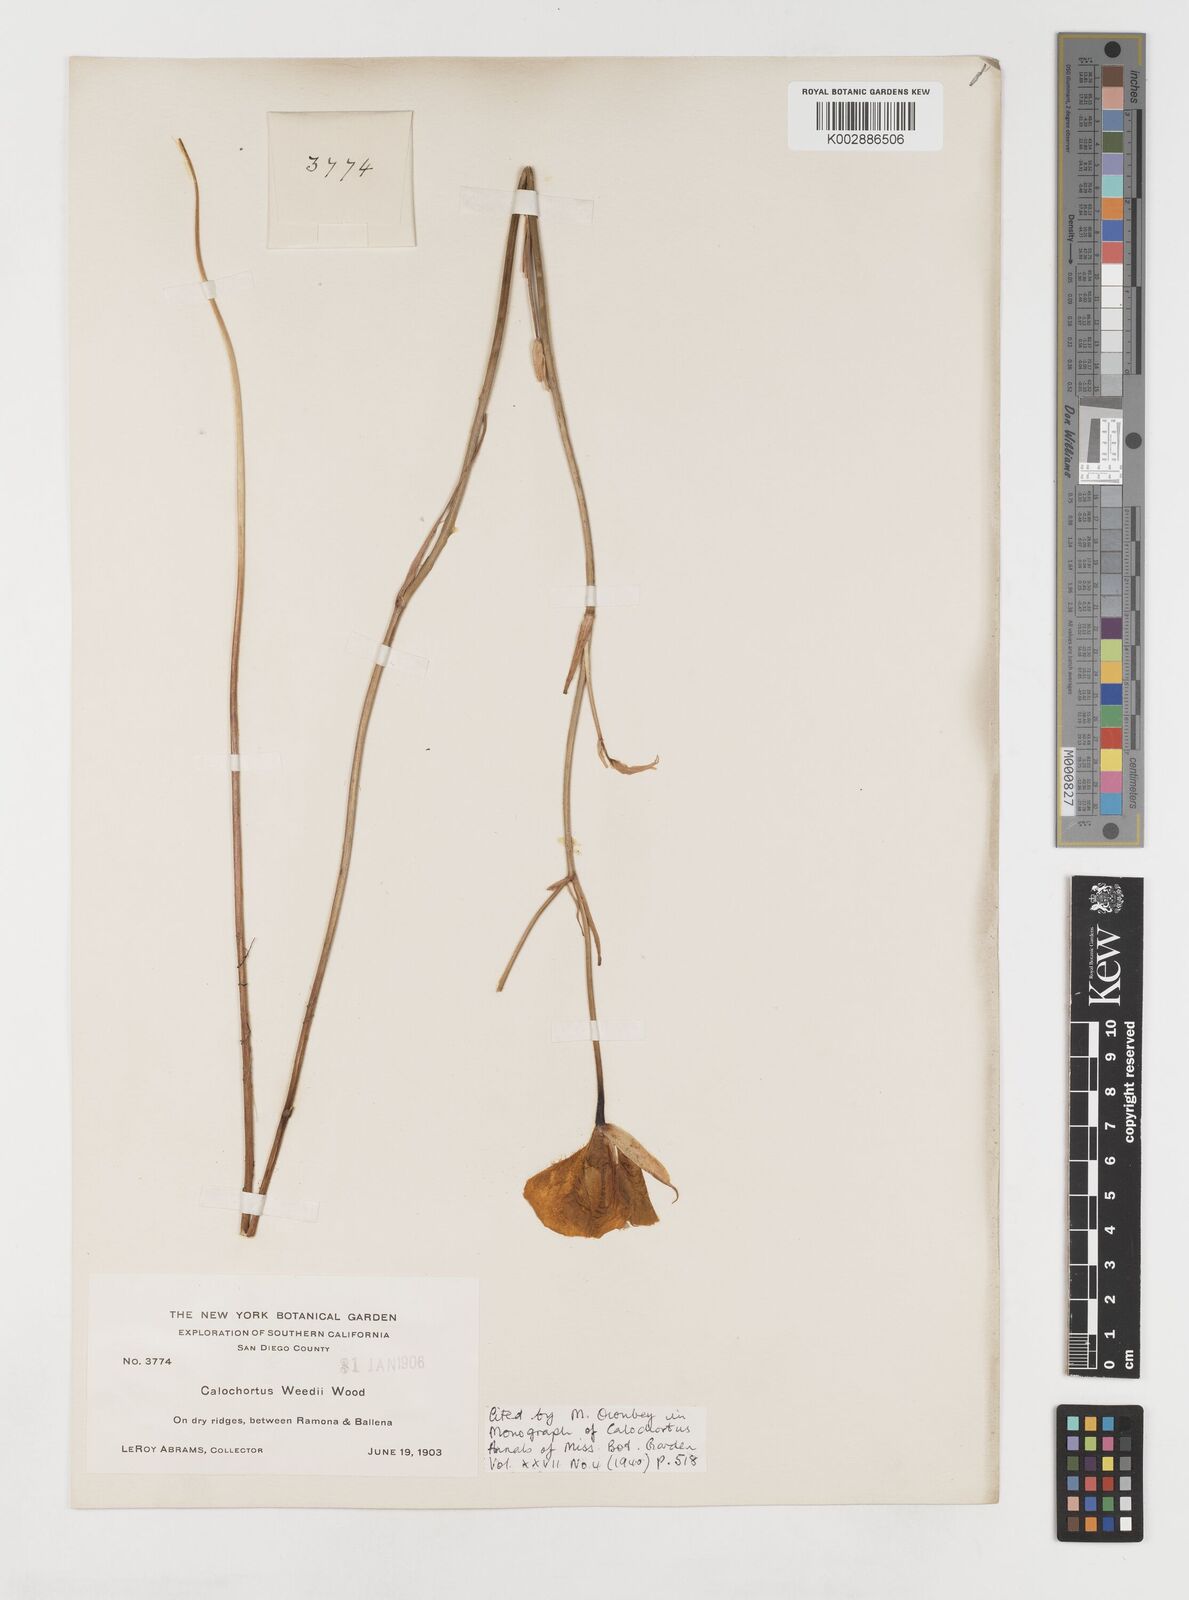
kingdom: Plantae
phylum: Tracheophyta
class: Liliopsida
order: Liliales
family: Liliaceae
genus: Calochortus
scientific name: Calochortus weedii
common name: Weed's mariposa-lily
